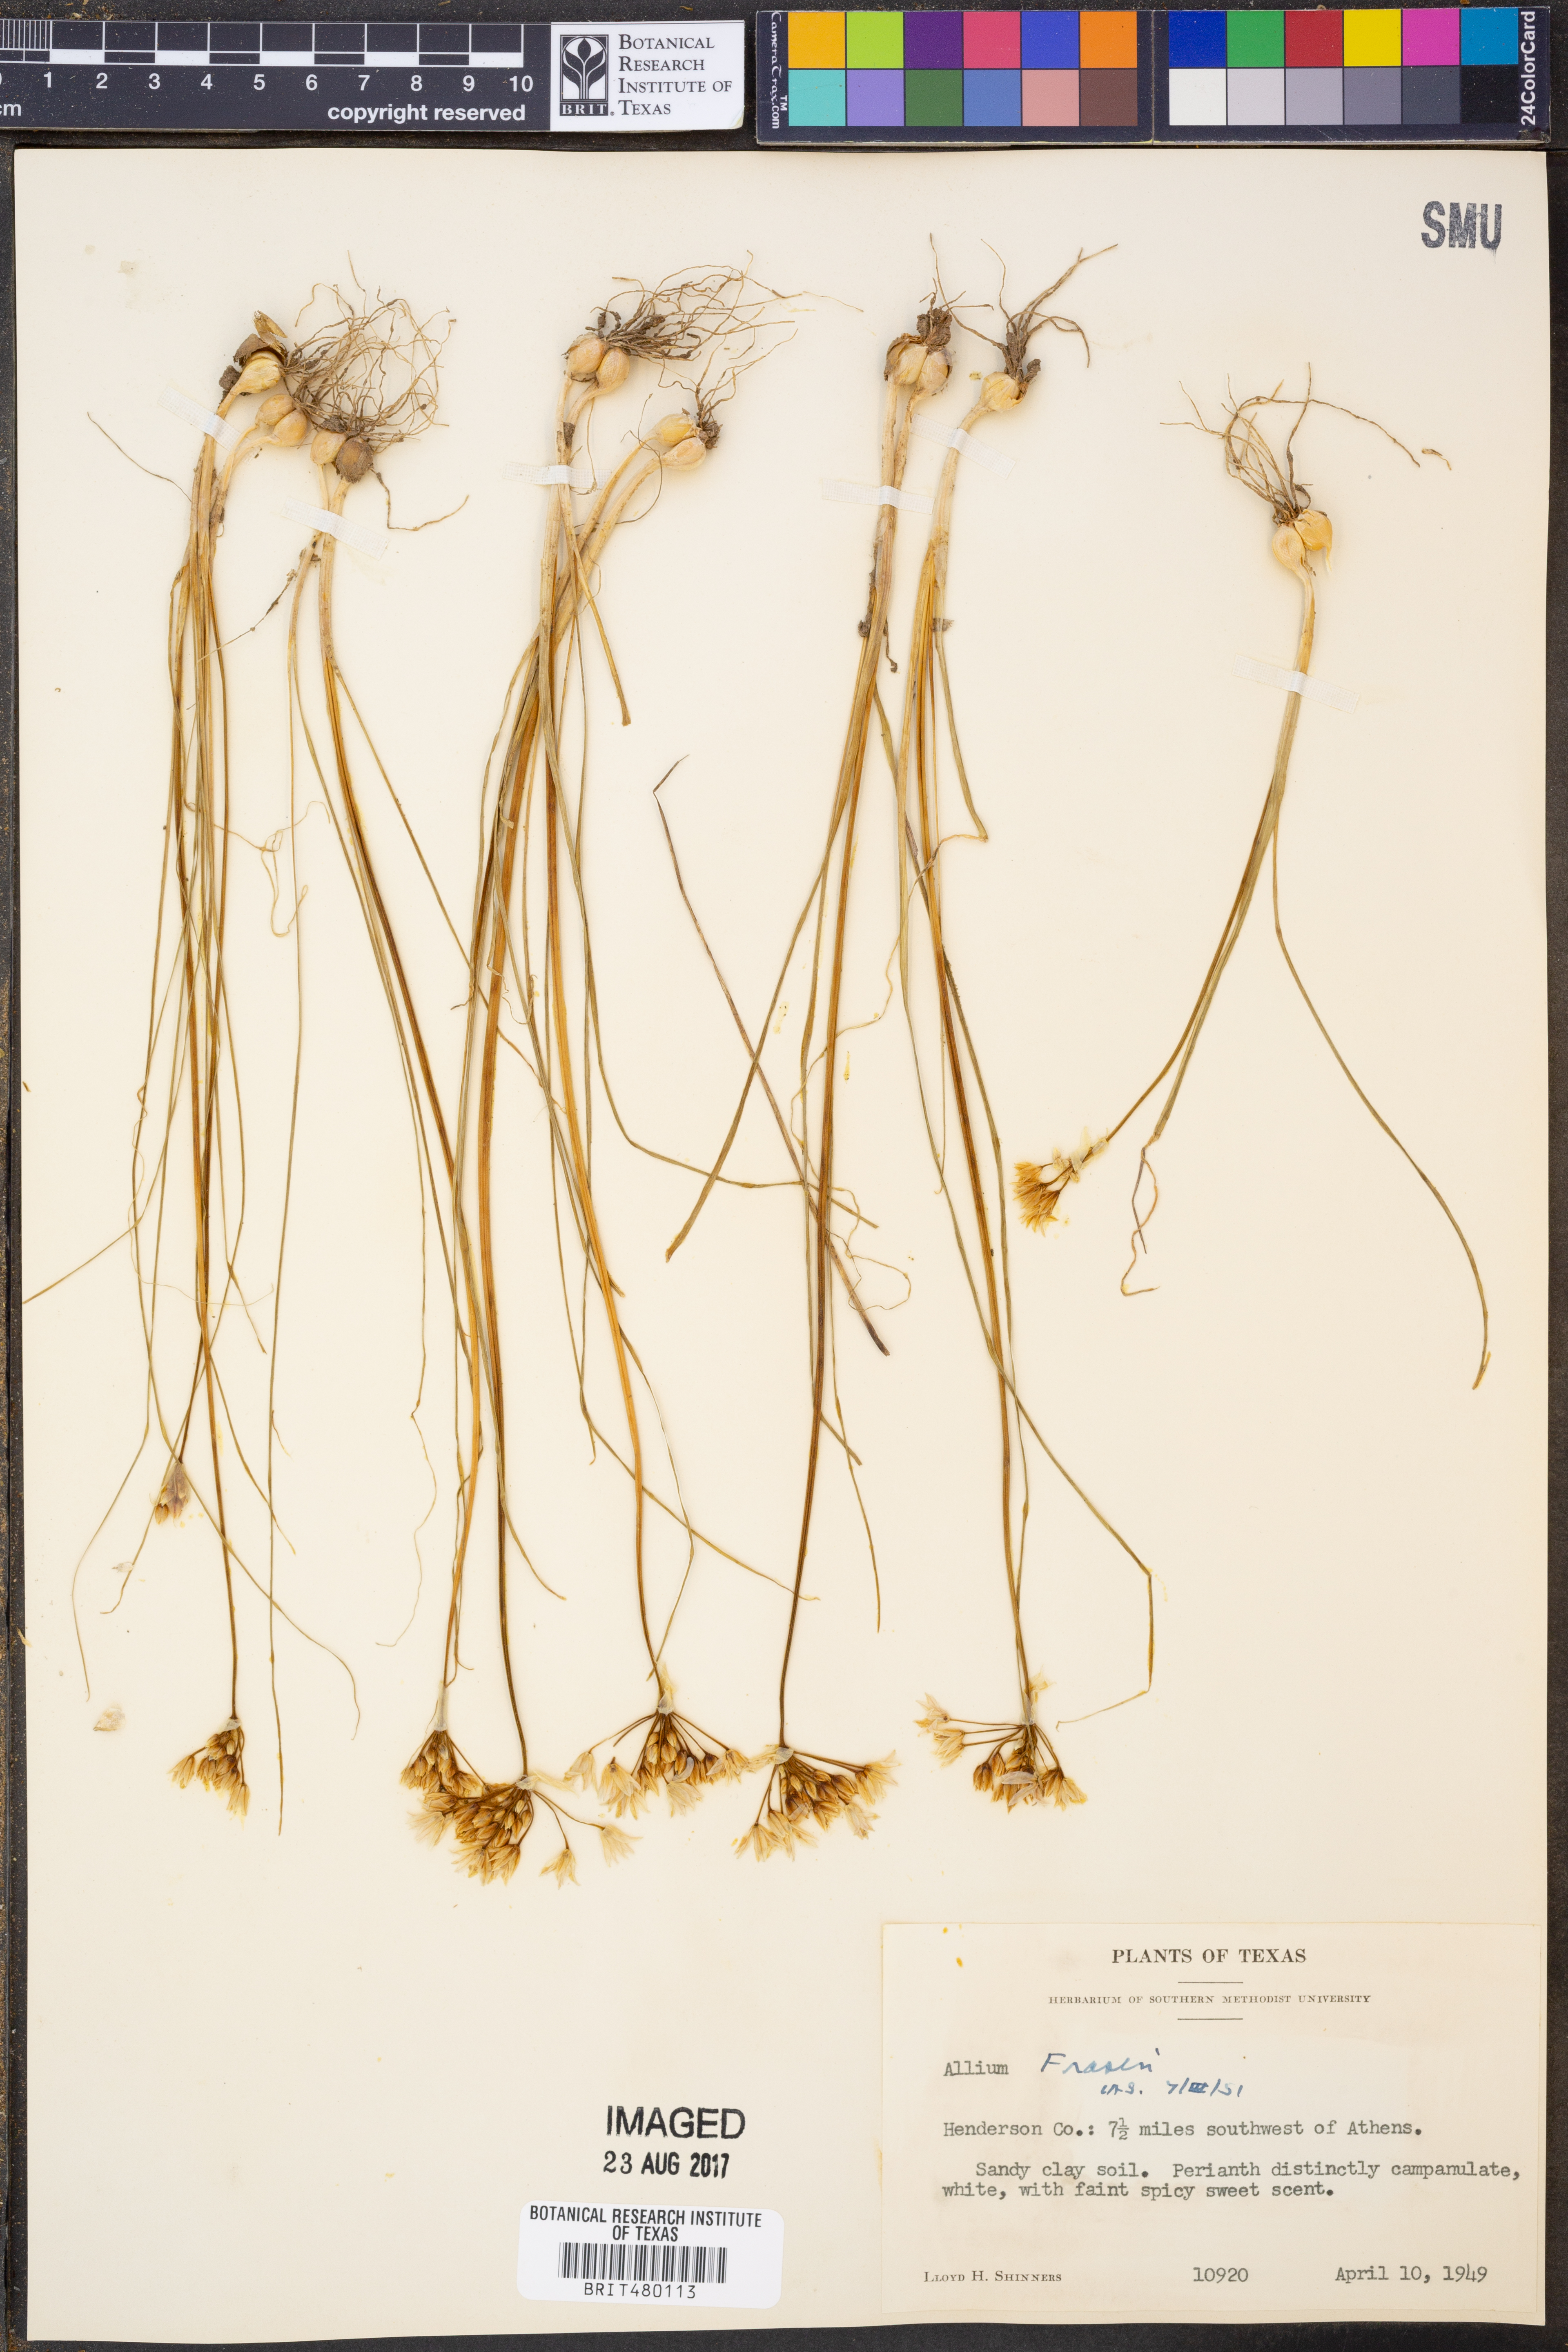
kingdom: Plantae
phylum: Tracheophyta
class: Liliopsida
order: Asparagales
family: Amaryllidaceae
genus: Allium
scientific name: Allium fraseri
